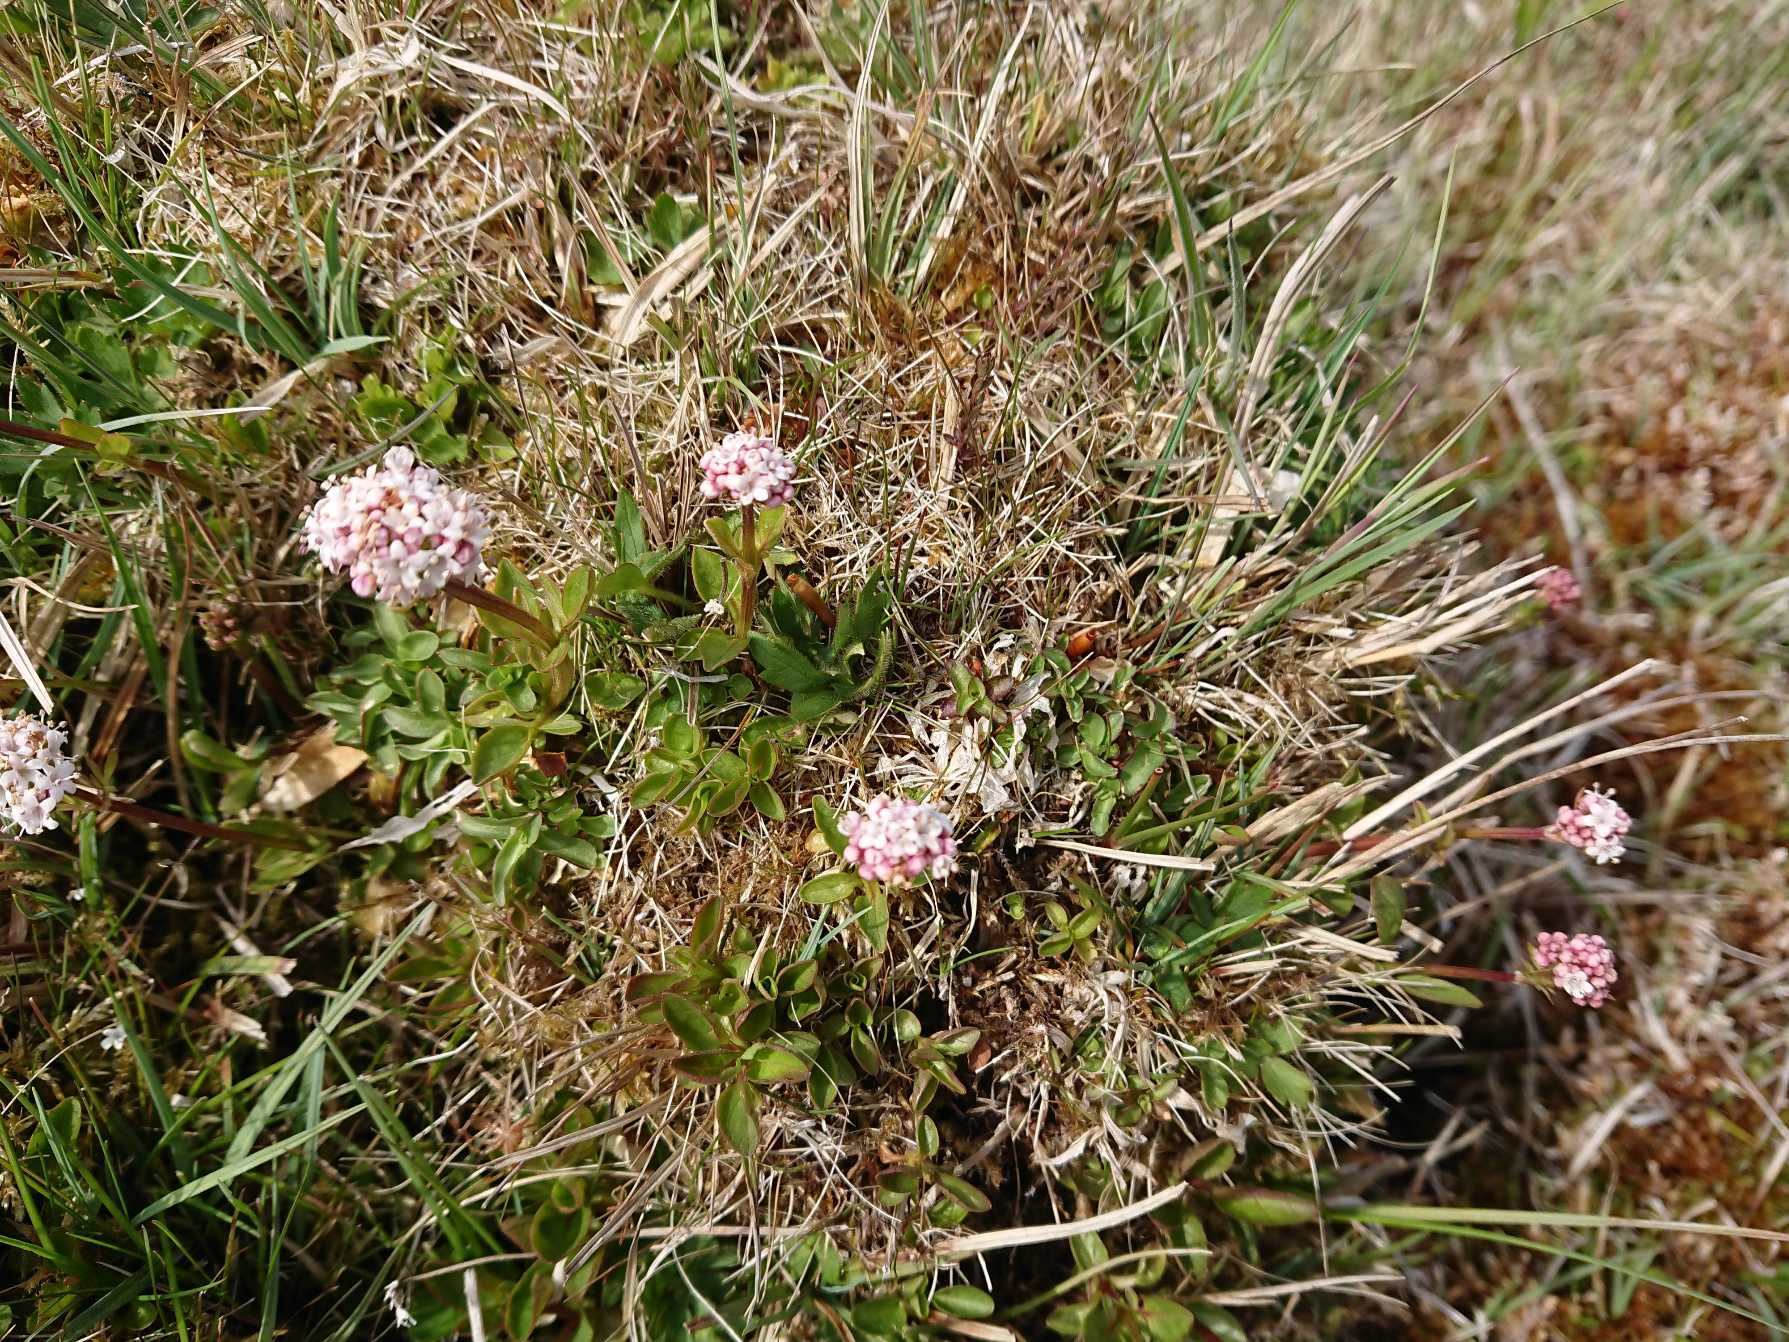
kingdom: Plantae
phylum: Tracheophyta
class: Magnoliopsida
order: Dipsacales
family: Caprifoliaceae
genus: Valeriana
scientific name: Valeriana dioica
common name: Tvebo baldrian
